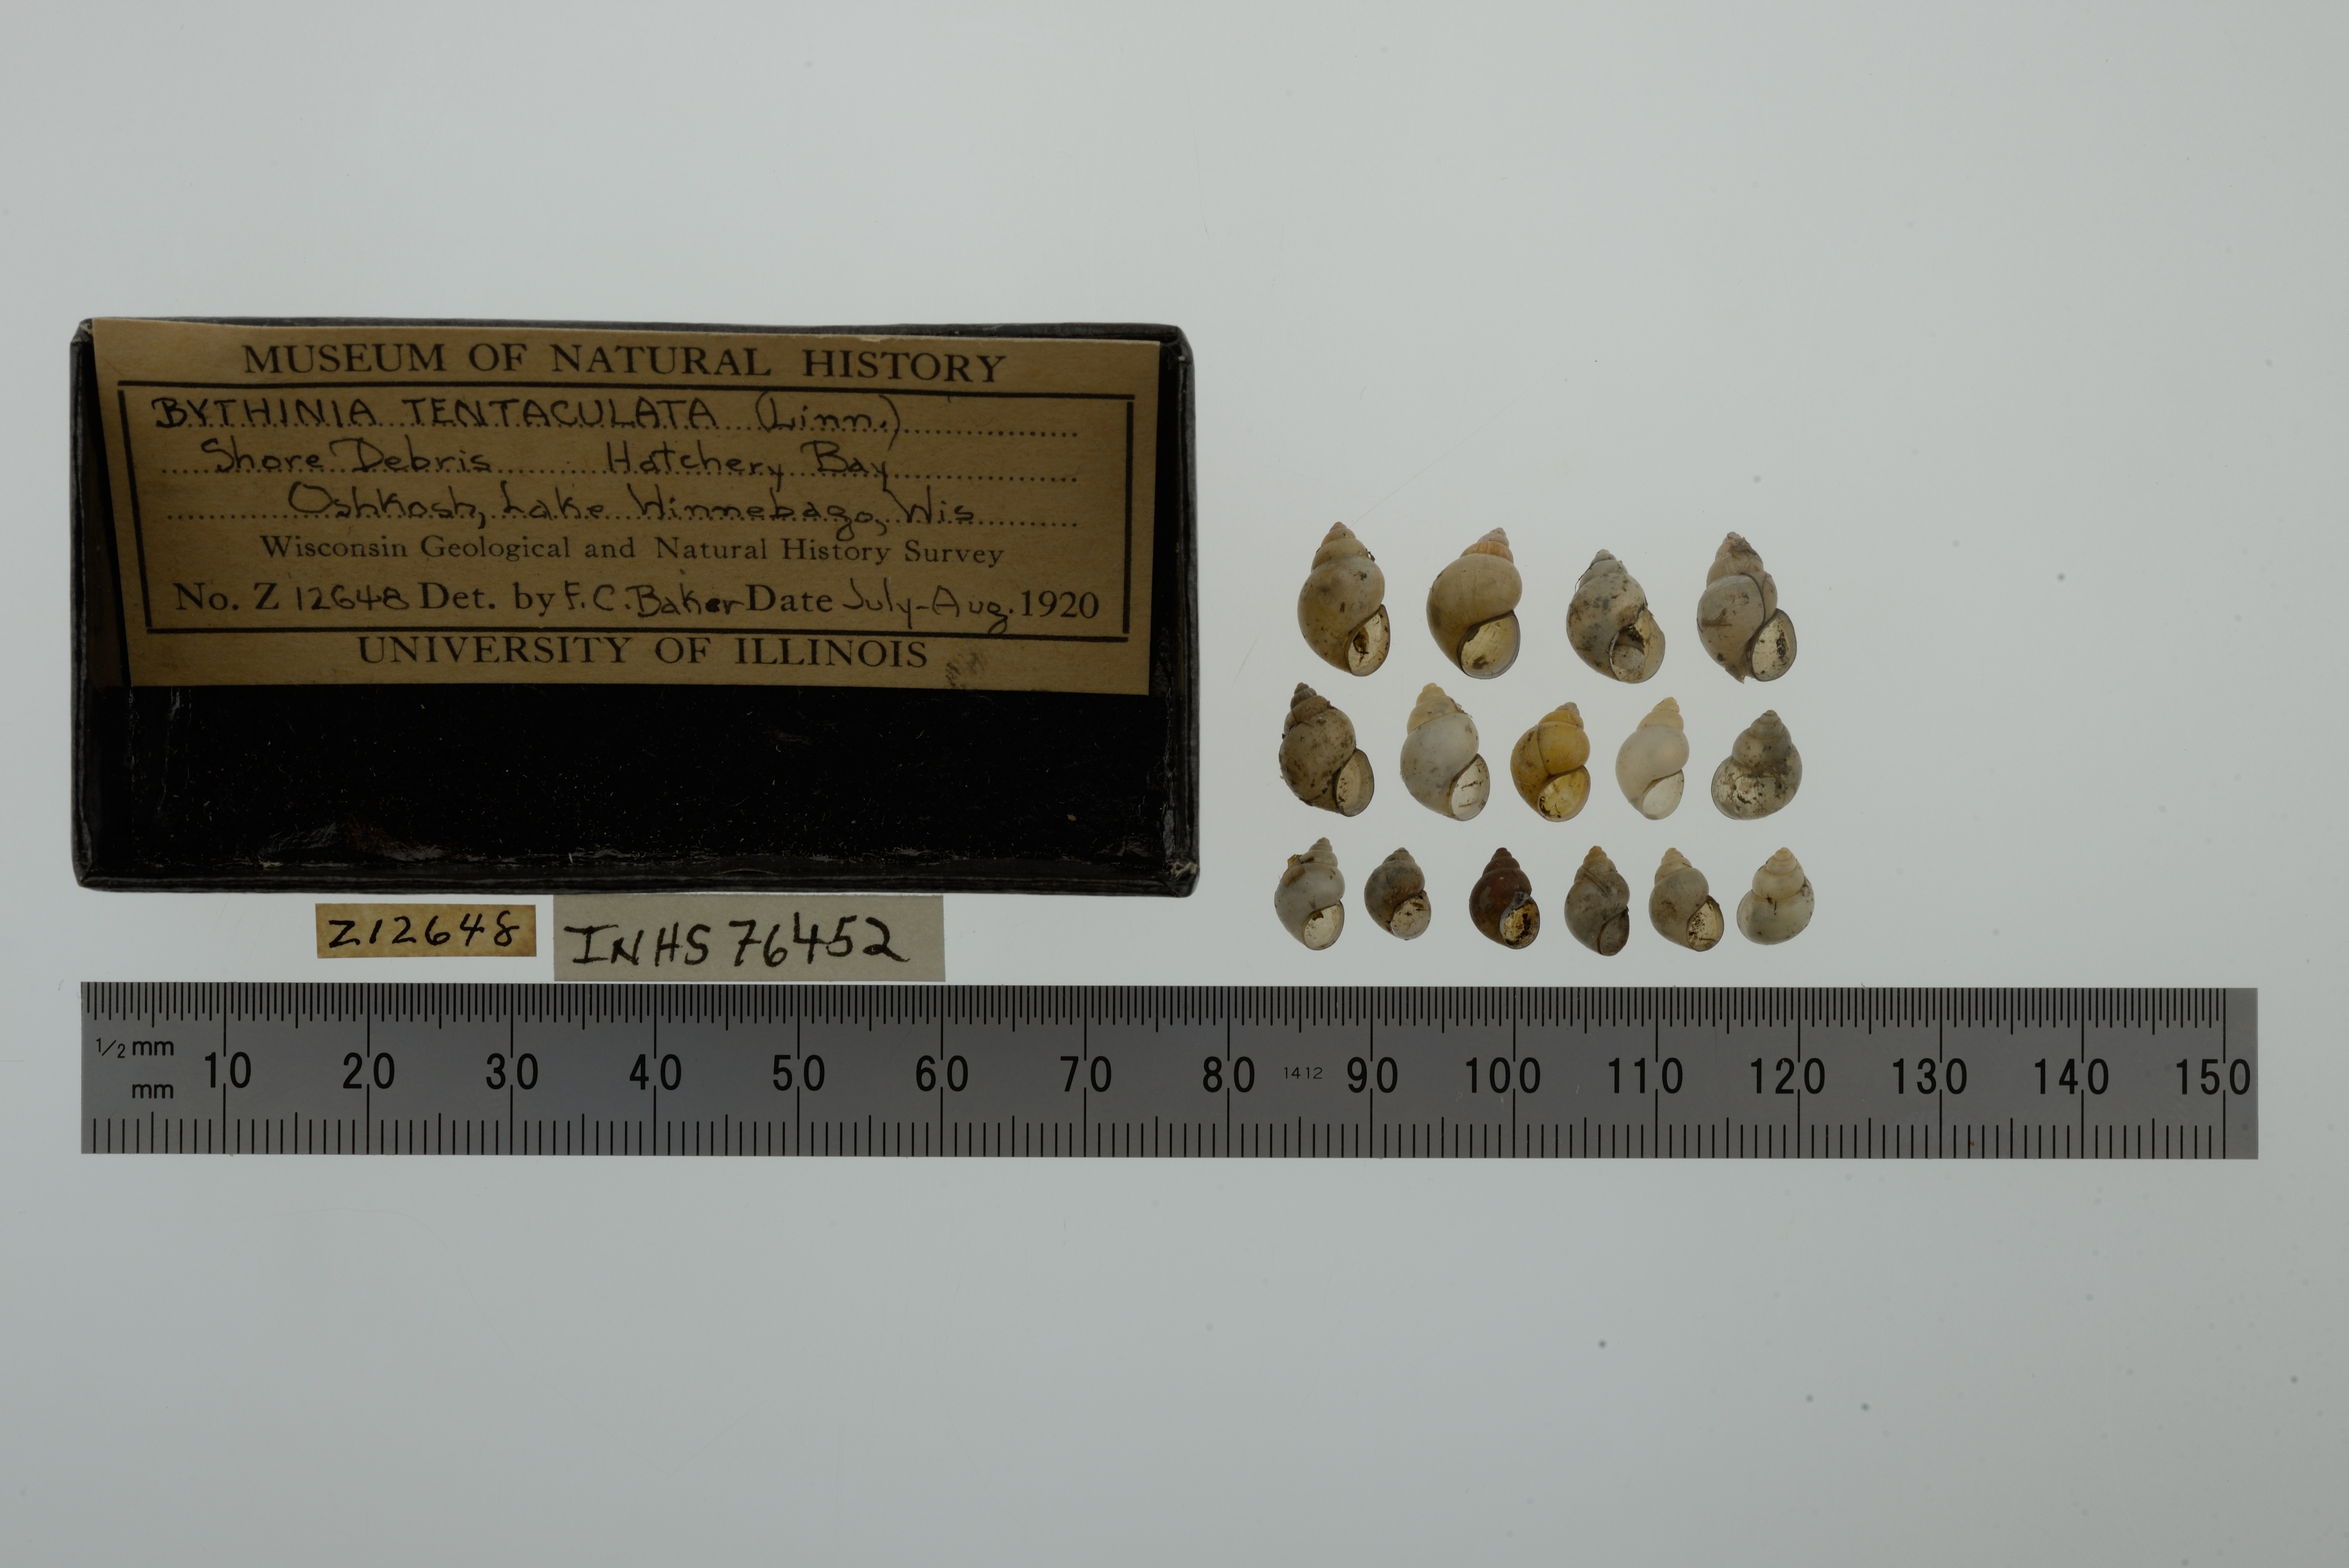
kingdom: Animalia
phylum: Mollusca
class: Gastropoda
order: Littorinimorpha
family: Bithyniidae
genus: Bithynia
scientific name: Bithynia tentaculata
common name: Common bithynia
